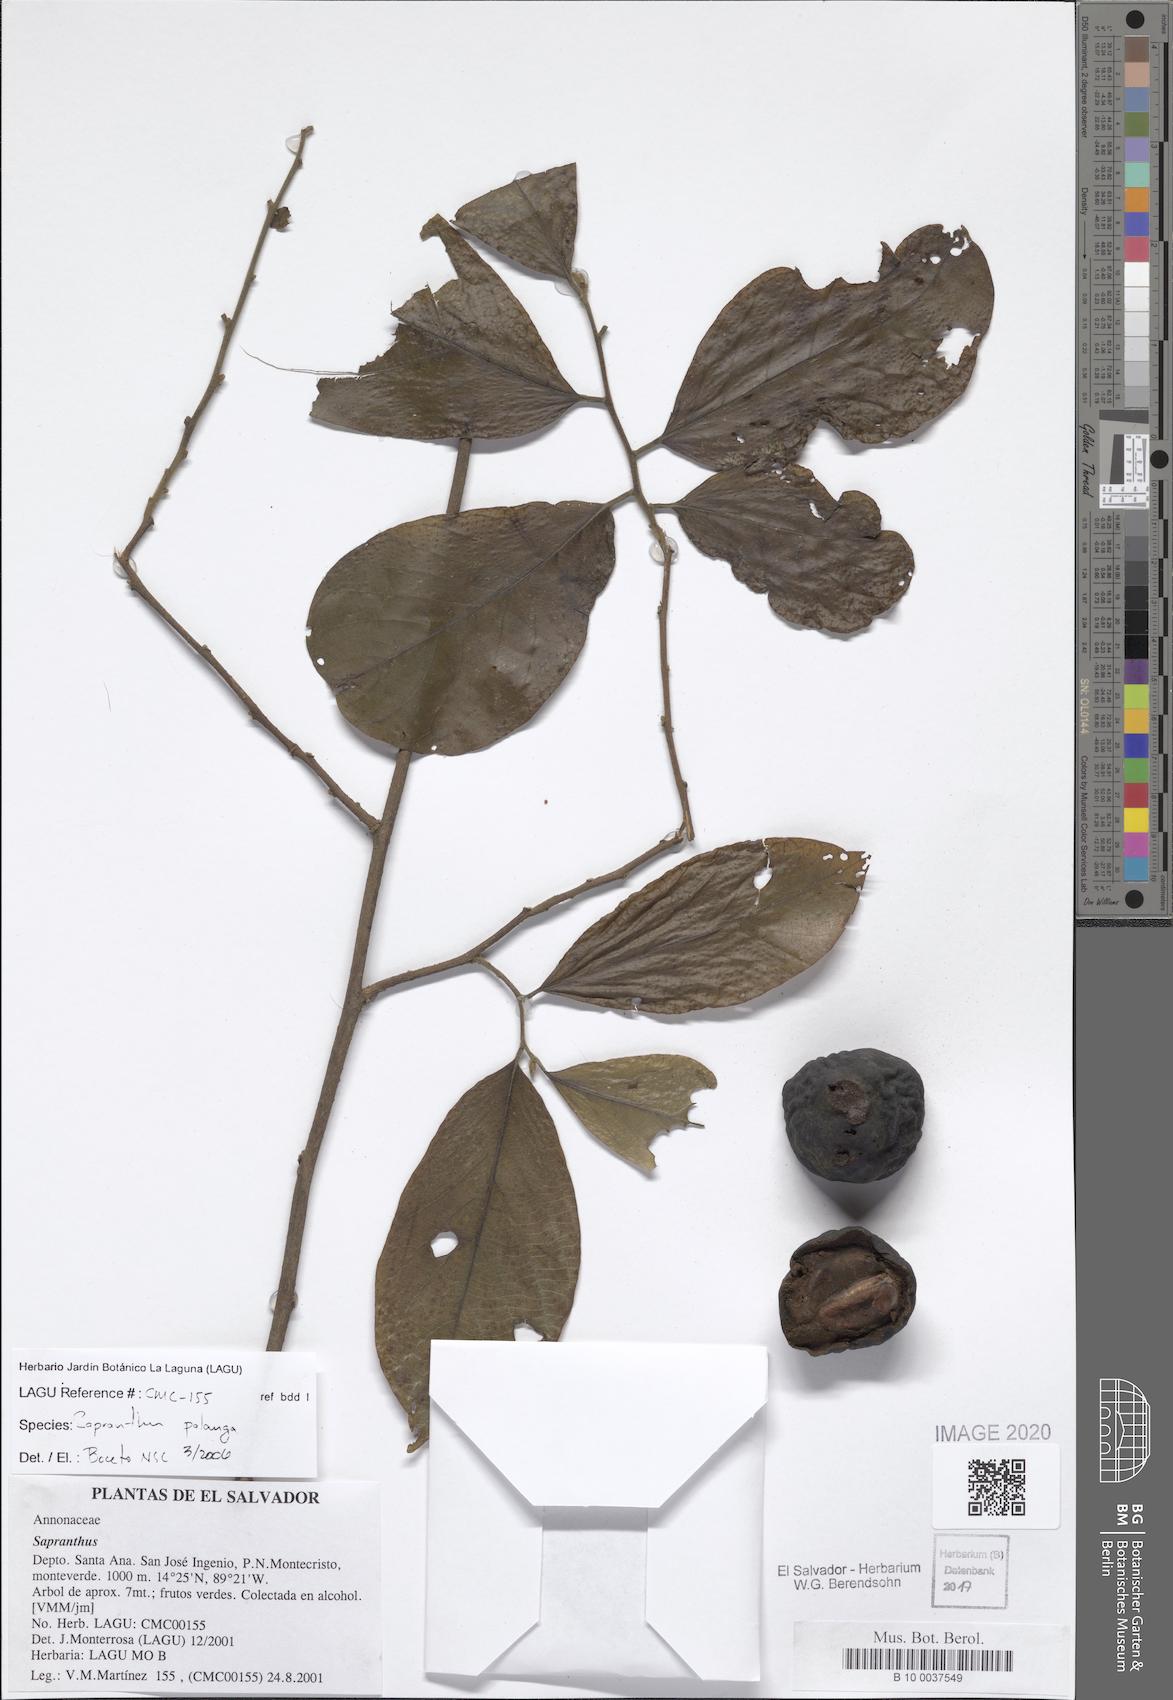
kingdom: Plantae
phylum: Tracheophyta
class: Magnoliopsida
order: Magnoliales
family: Annonaceae
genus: Sapranthus
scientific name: Sapranthus palanga
